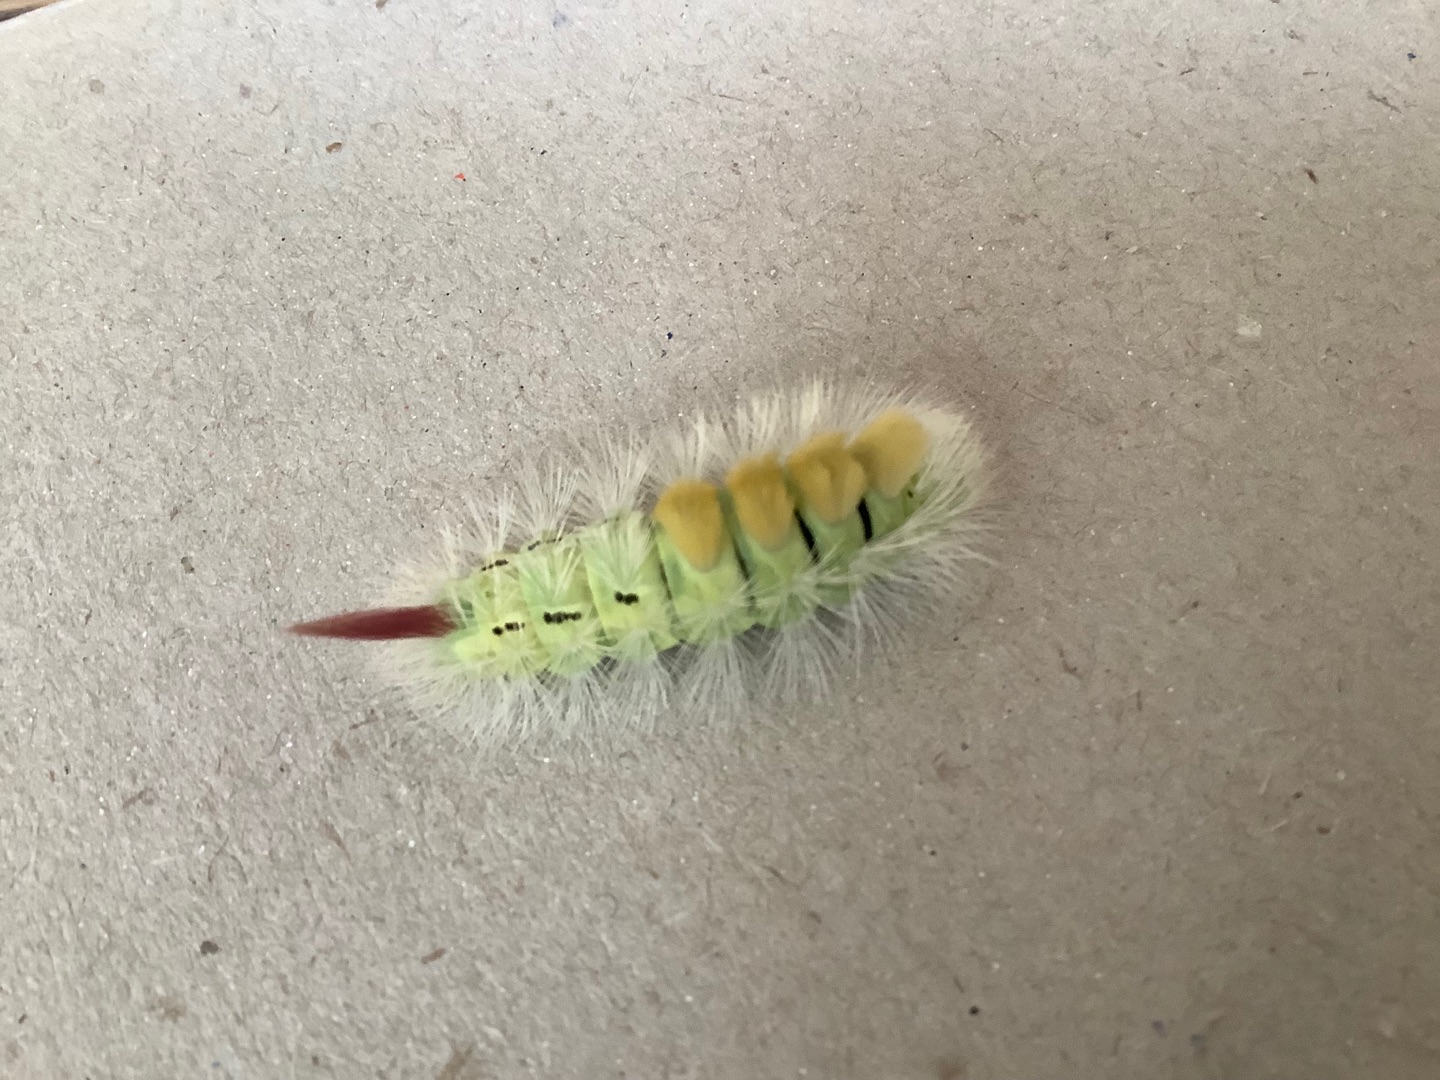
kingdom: Animalia
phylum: Arthropoda
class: Insecta
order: Lepidoptera
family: Erebidae
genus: Calliteara
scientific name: Calliteara pudibunda
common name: Bøgenonne
